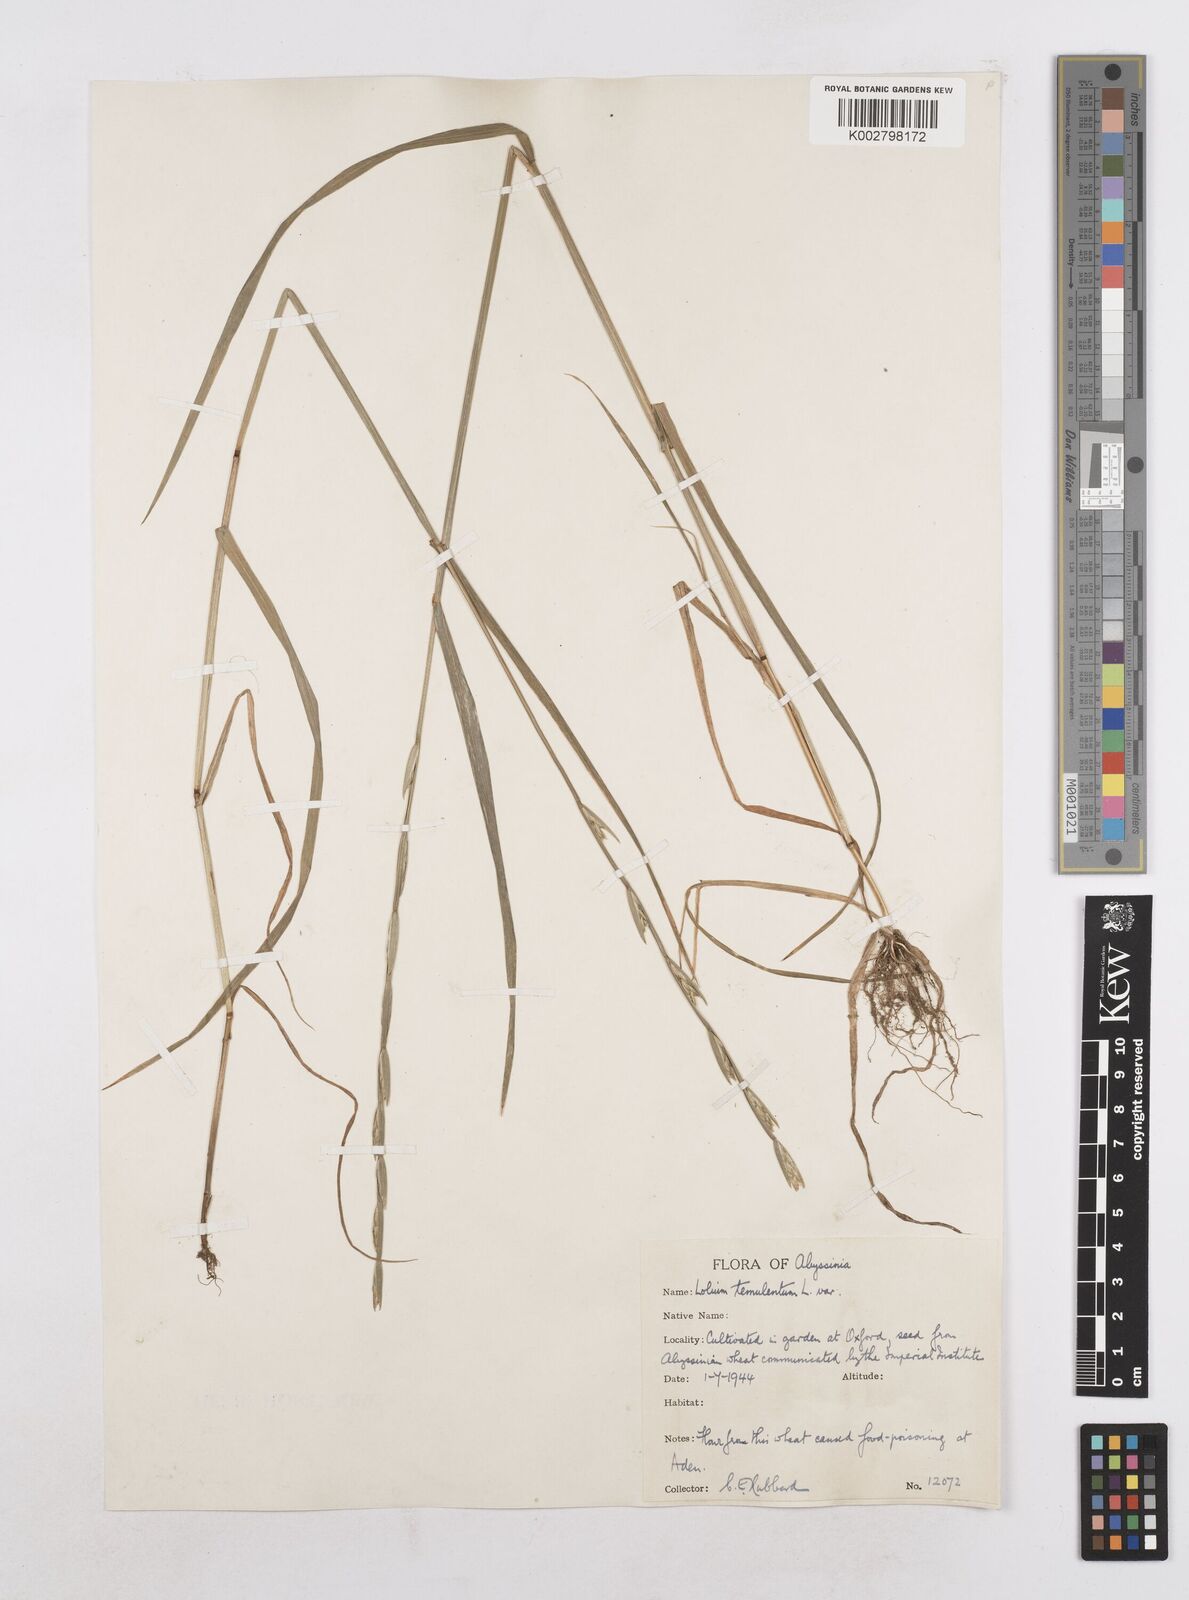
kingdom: Plantae
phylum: Tracheophyta
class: Liliopsida
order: Poales
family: Poaceae
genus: Lolium
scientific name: Lolium temulentum
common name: Darnel
